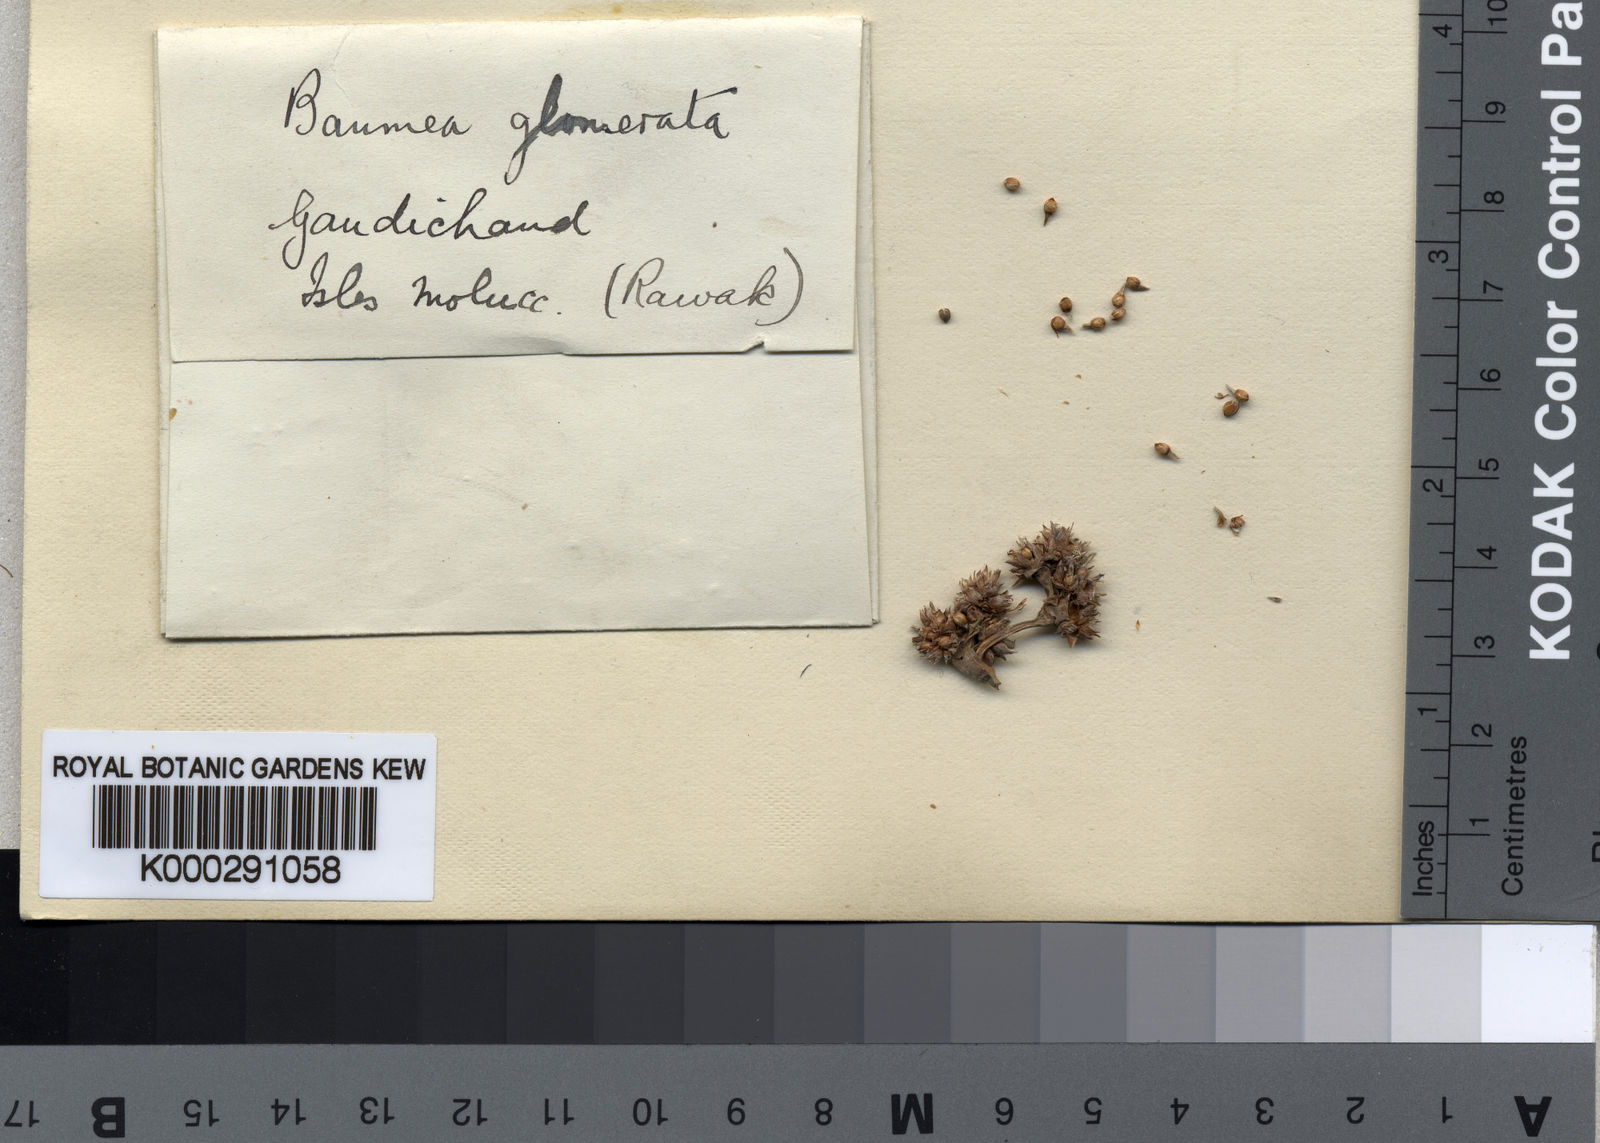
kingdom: Plantae
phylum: Tracheophyta
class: Liliopsida
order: Poales
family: Cyperaceae
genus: Machaerina
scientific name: Machaerina glomerata
